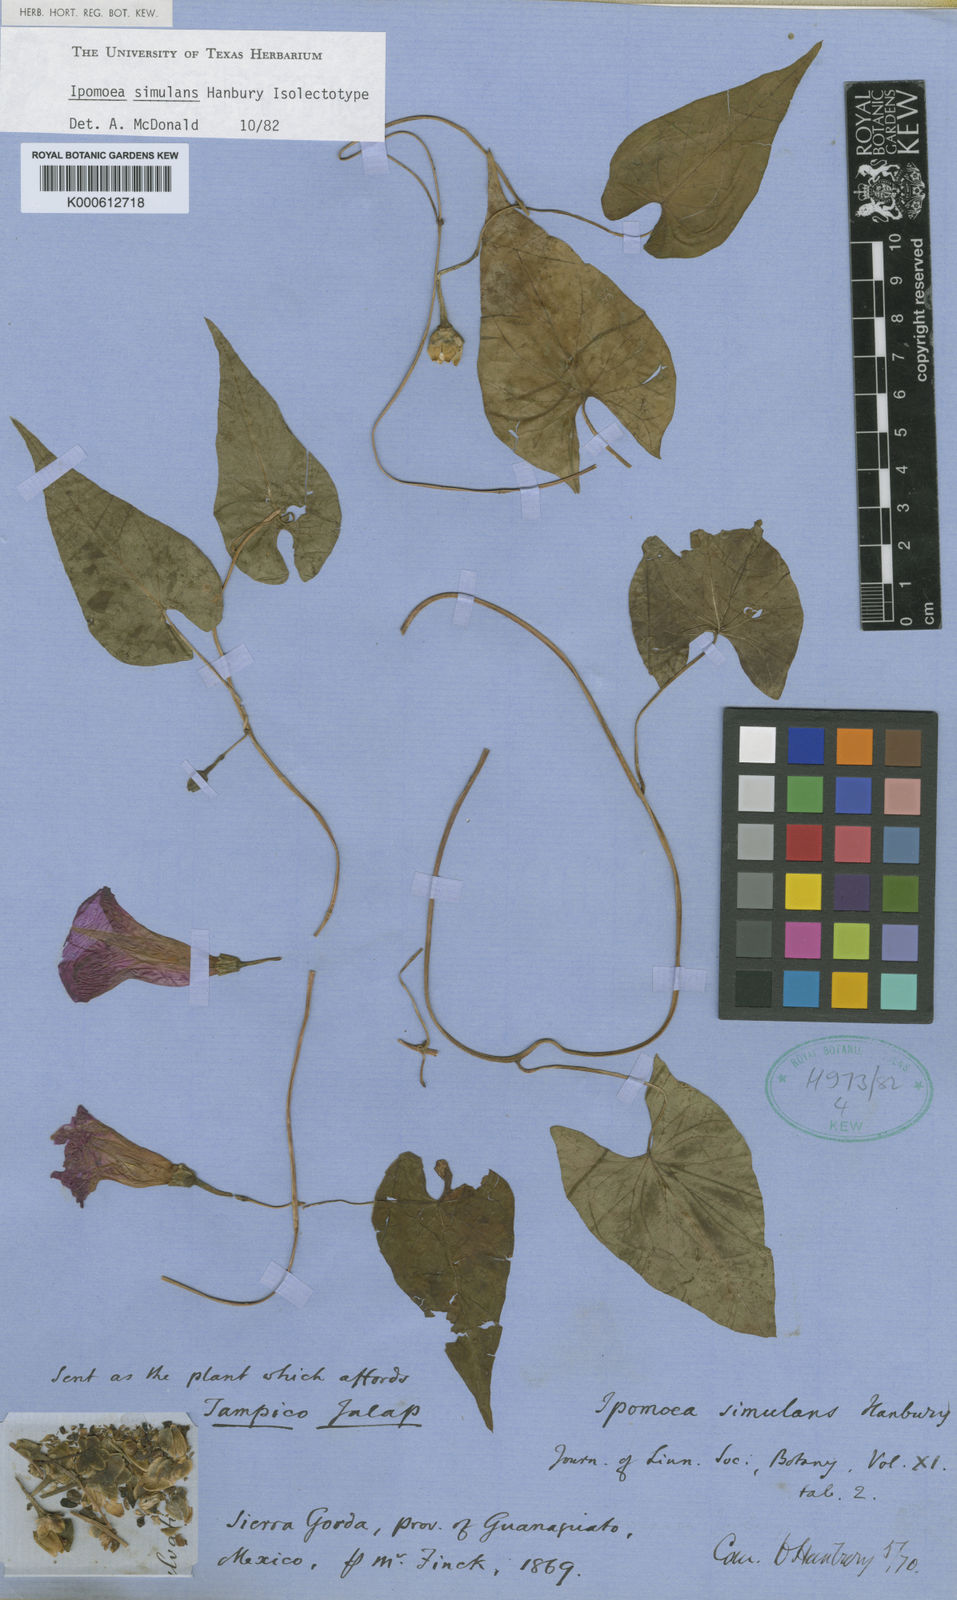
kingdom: Plantae
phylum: Tracheophyta
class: Magnoliopsida
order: Solanales
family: Convolvulaceae
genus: Ipomoea
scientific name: Ipomoea simulans
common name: Tampico jalap
